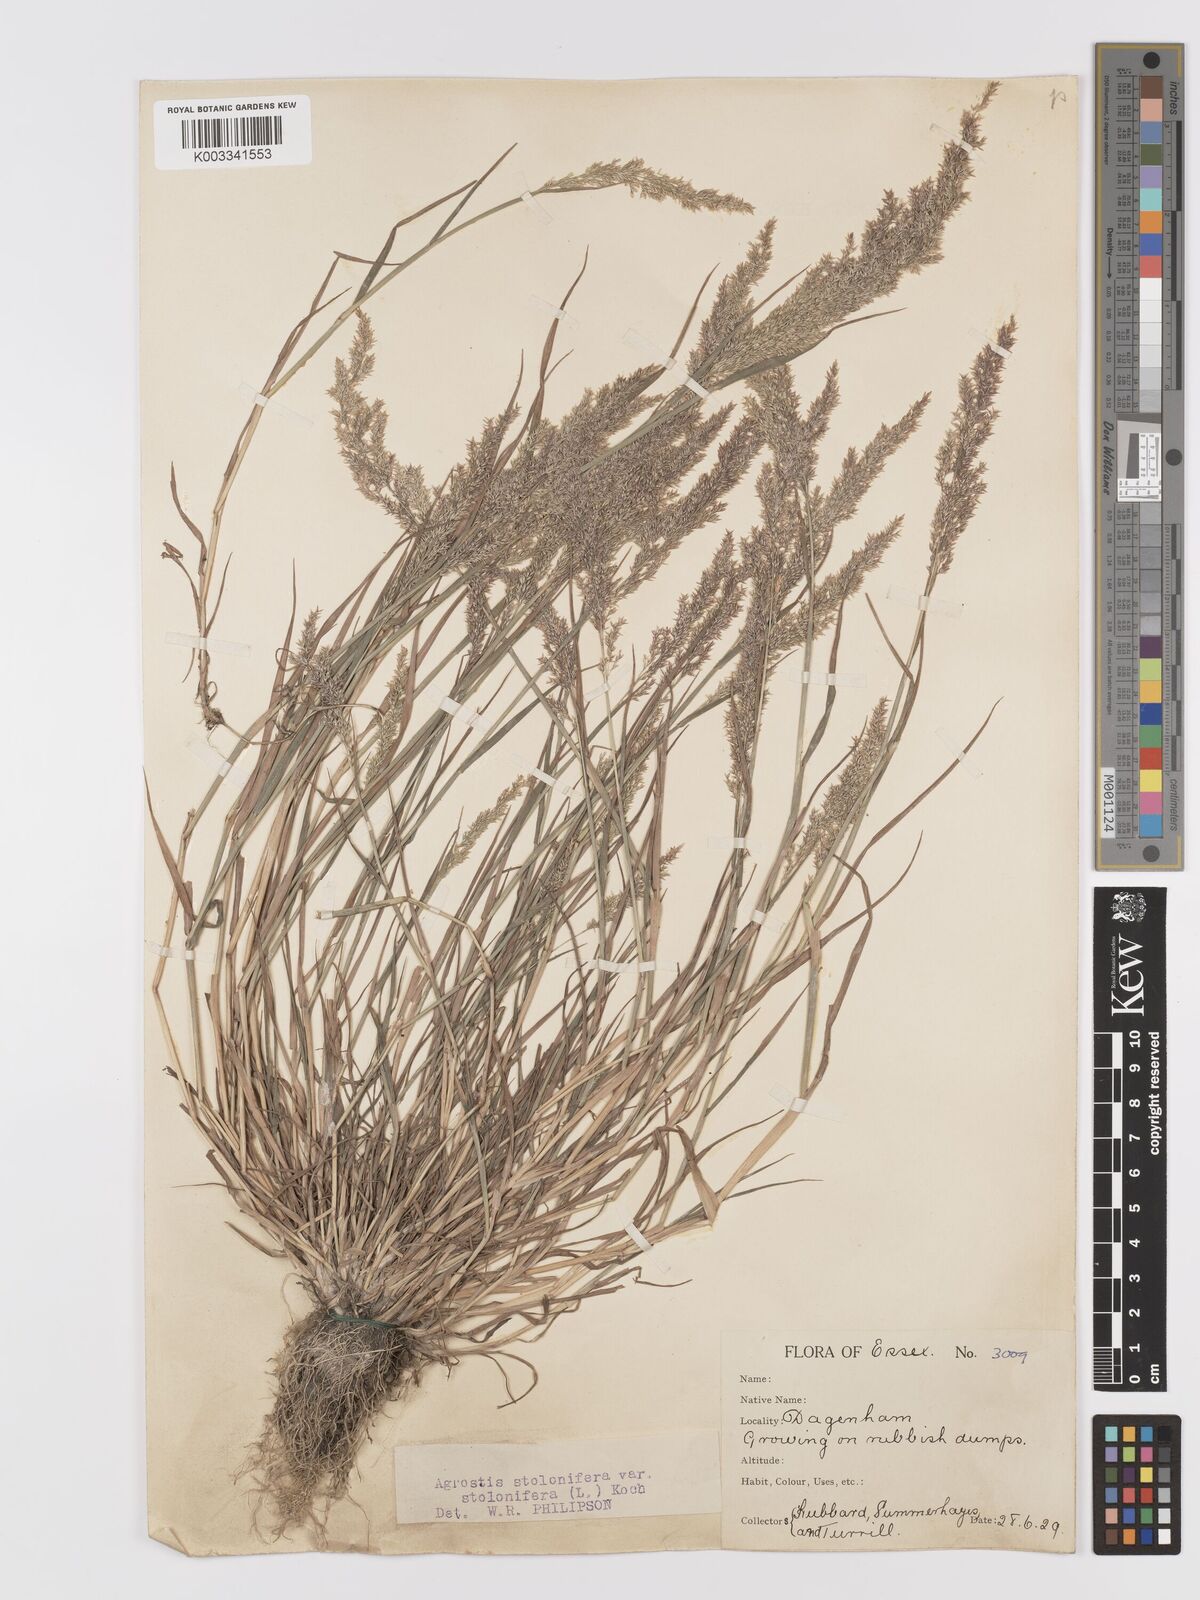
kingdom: Plantae
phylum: Tracheophyta
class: Liliopsida
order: Poales
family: Poaceae
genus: Agrostis
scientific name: Agrostis stolonifera
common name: Creeping bentgrass
